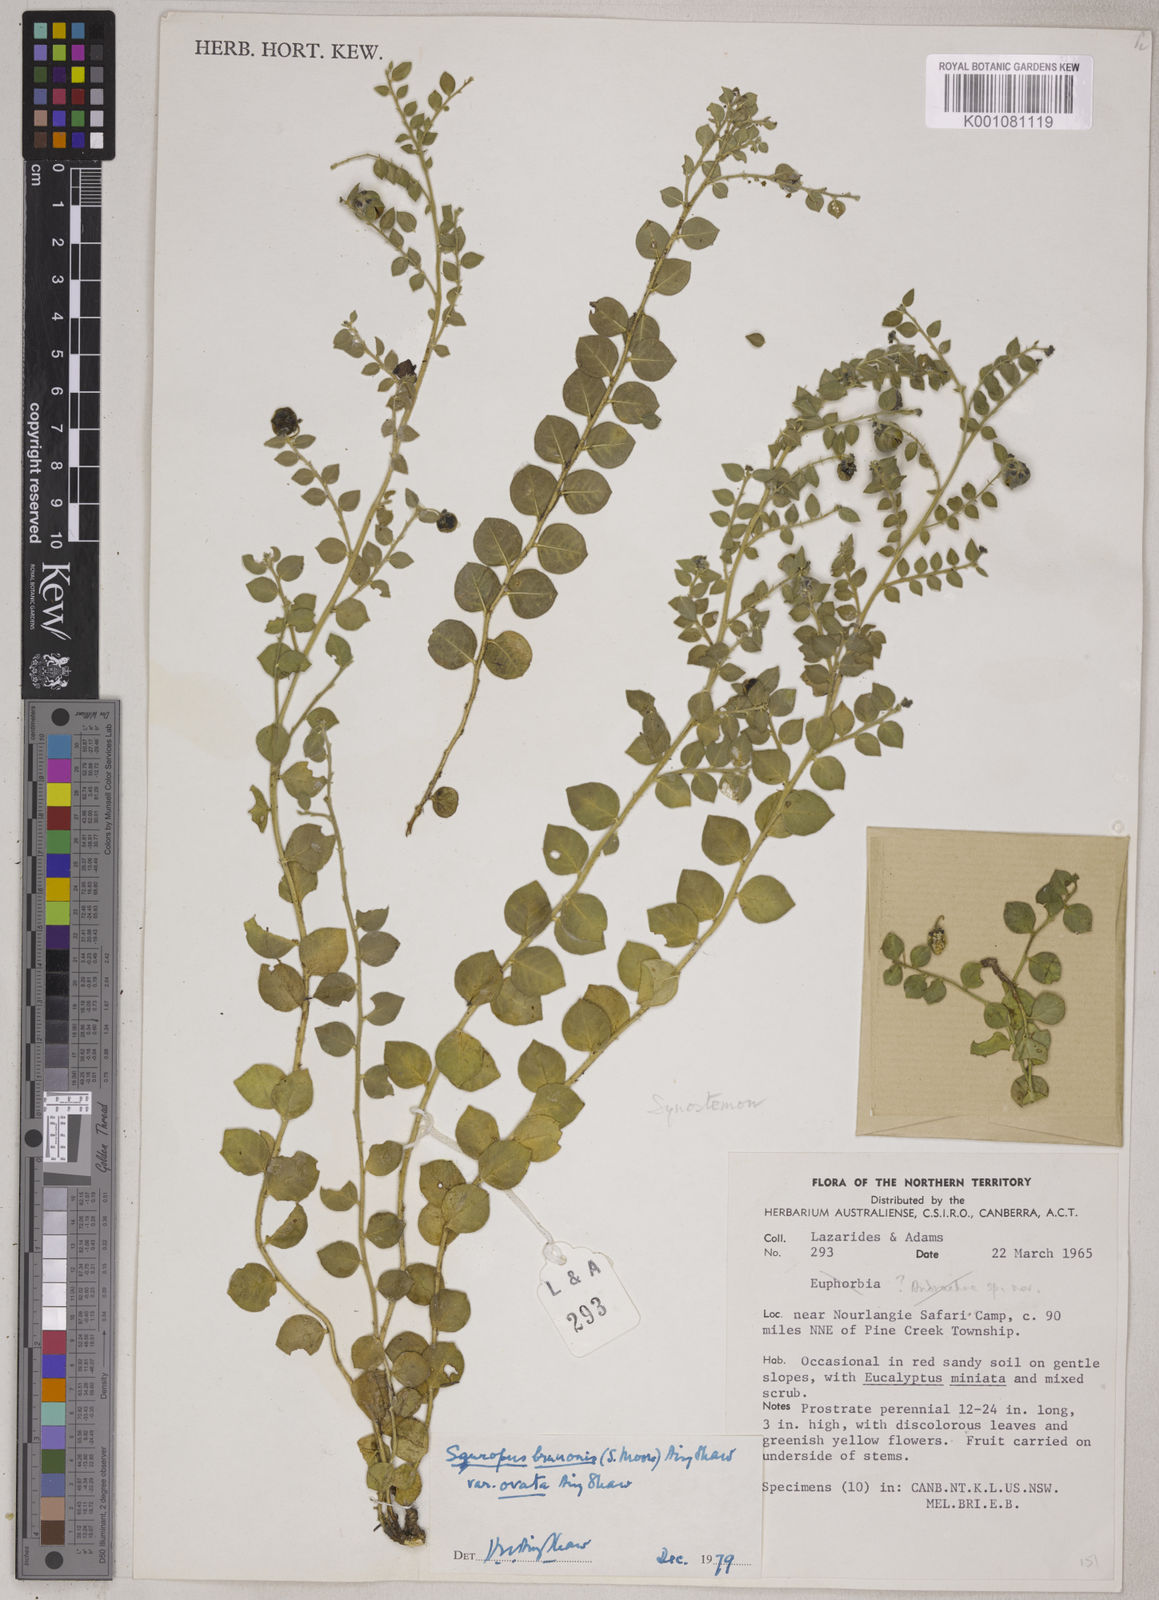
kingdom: Plantae
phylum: Tracheophyta
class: Magnoliopsida
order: Malpighiales
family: Phyllanthaceae
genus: Breynia
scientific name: Breynia Sauropus brunonis
